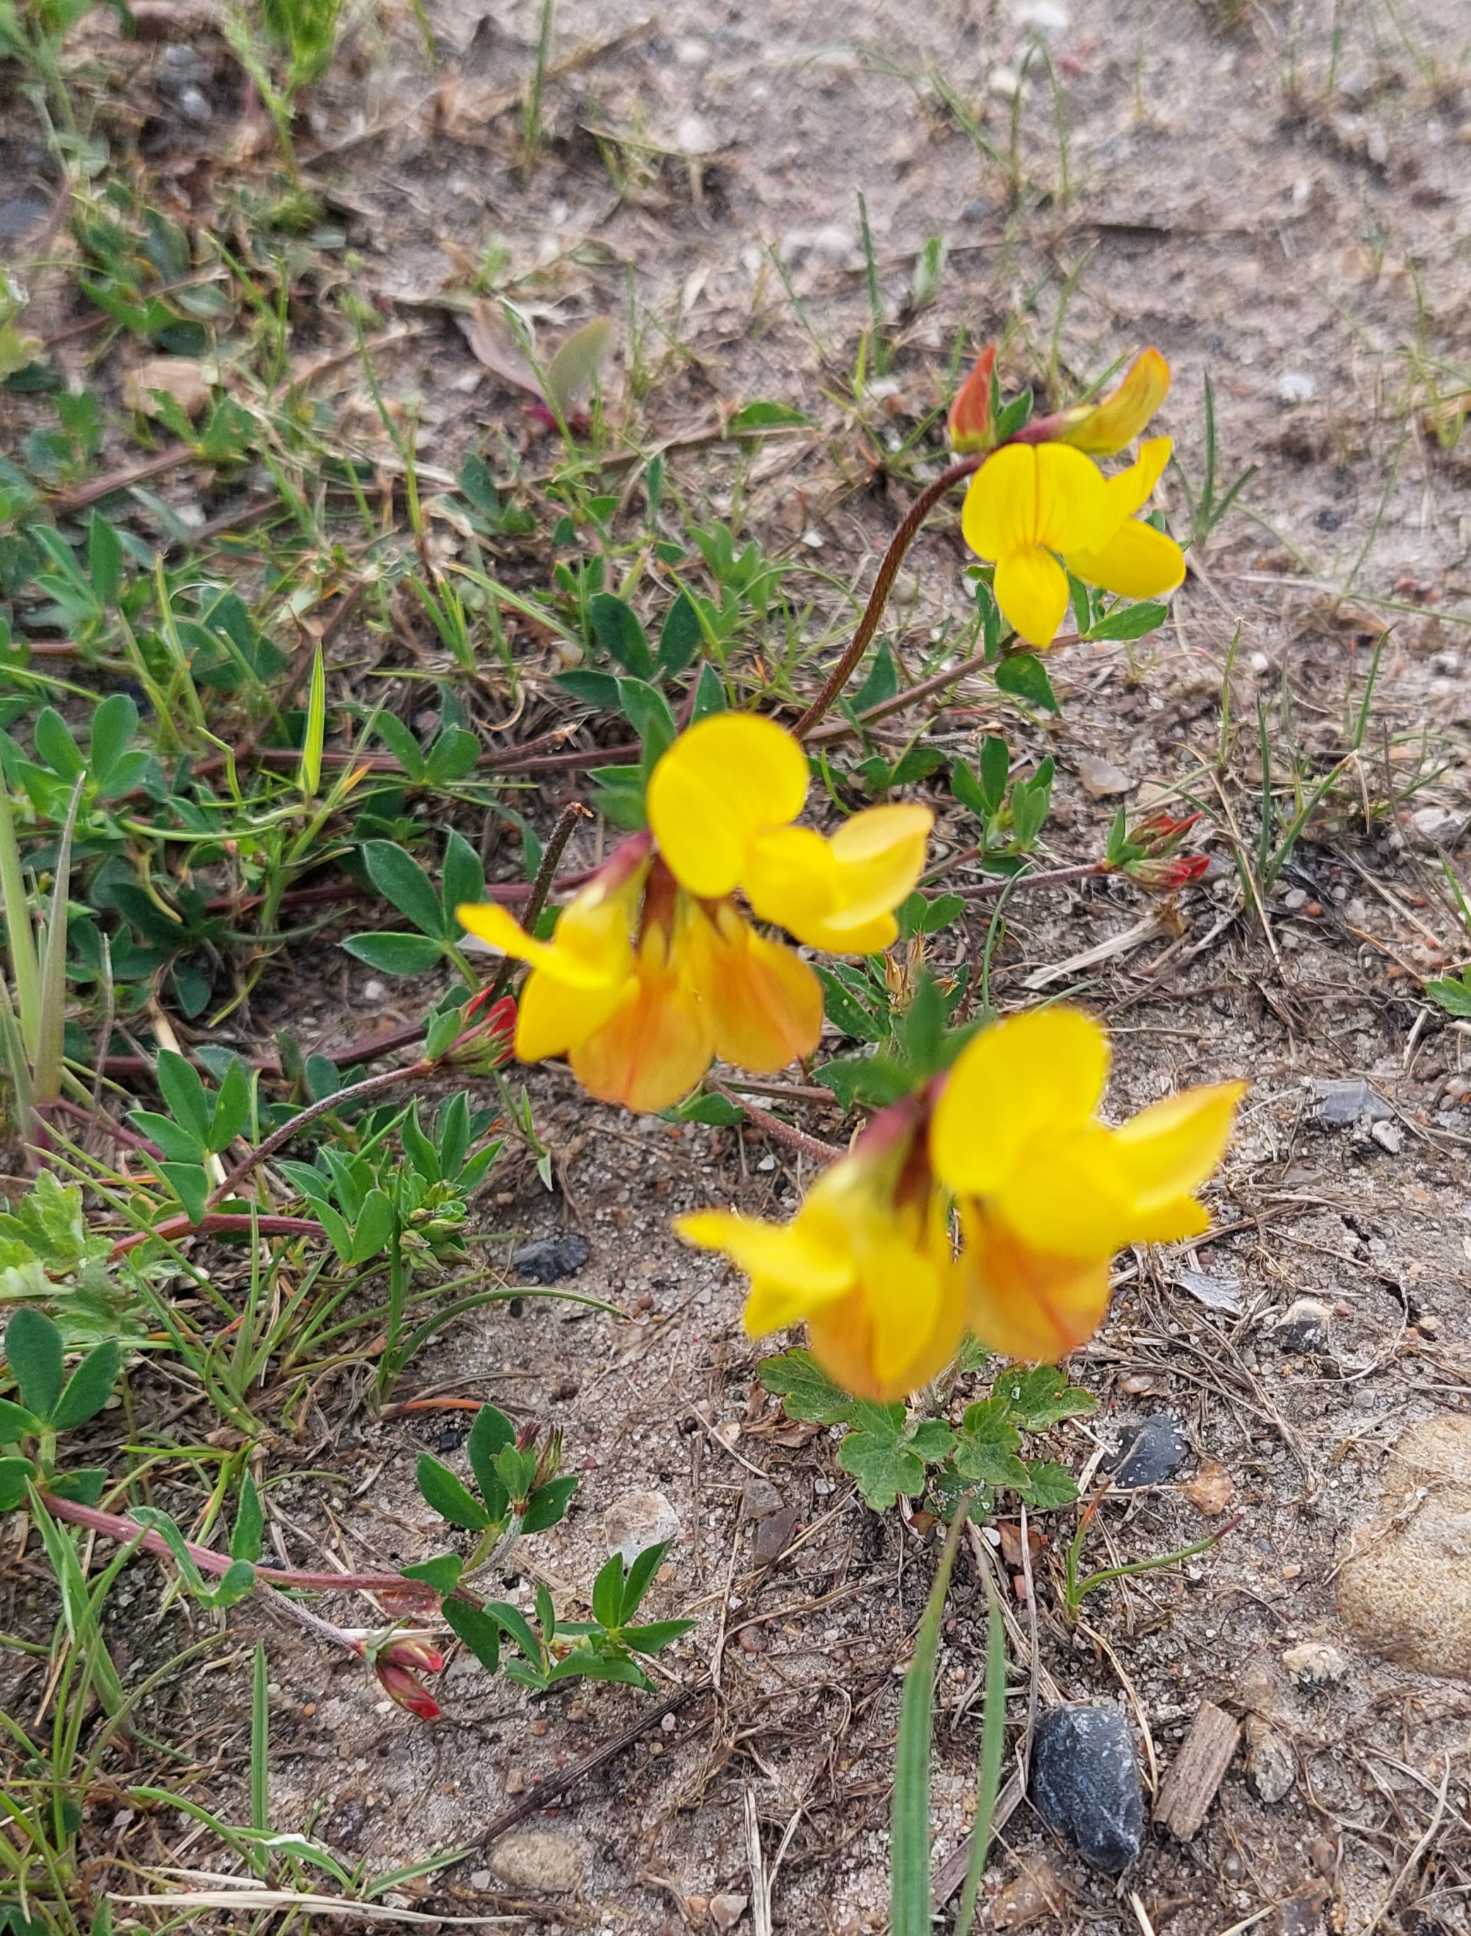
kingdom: Plantae
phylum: Tracheophyta
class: Magnoliopsida
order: Fabales
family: Fabaceae
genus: Lotus
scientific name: Lotus corniculatus
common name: Almindelig kællingetand
